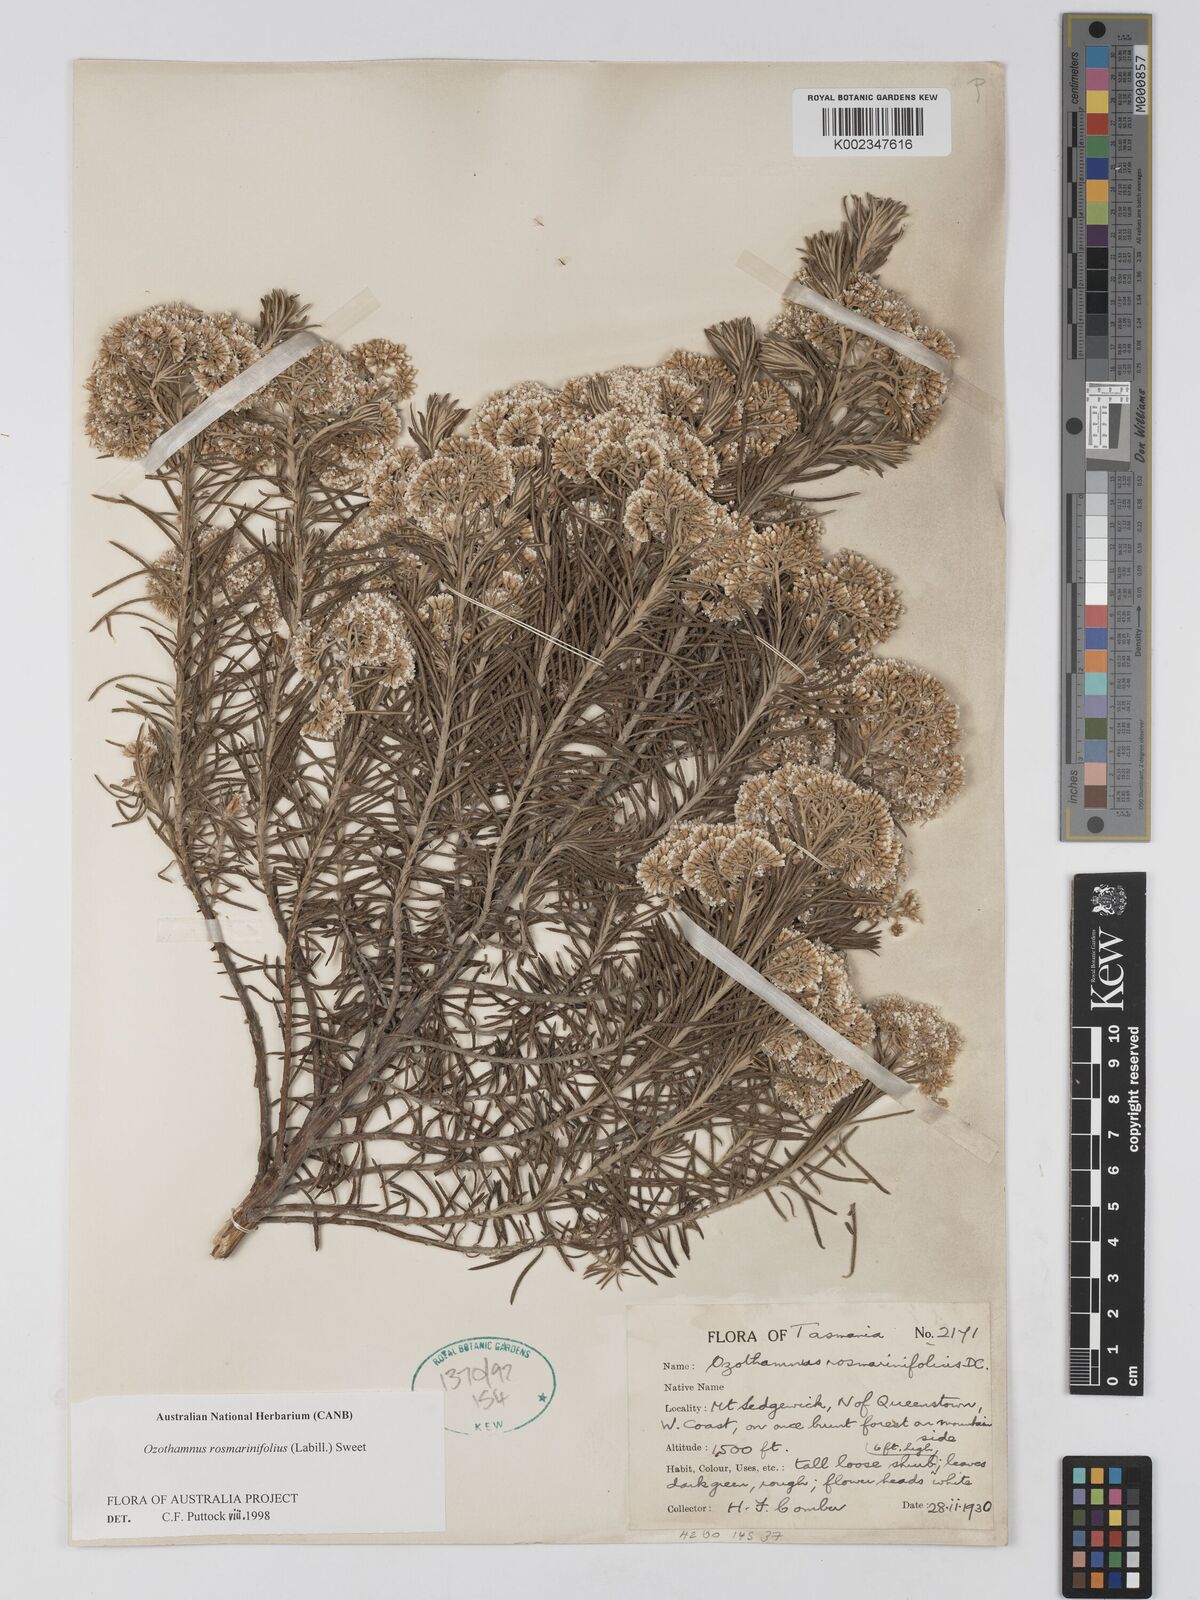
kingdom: Plantae
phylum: Tracheophyta
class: Magnoliopsida
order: Asterales
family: Asteraceae
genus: Ozothamnus
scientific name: Ozothamnus rosmarinifolius
